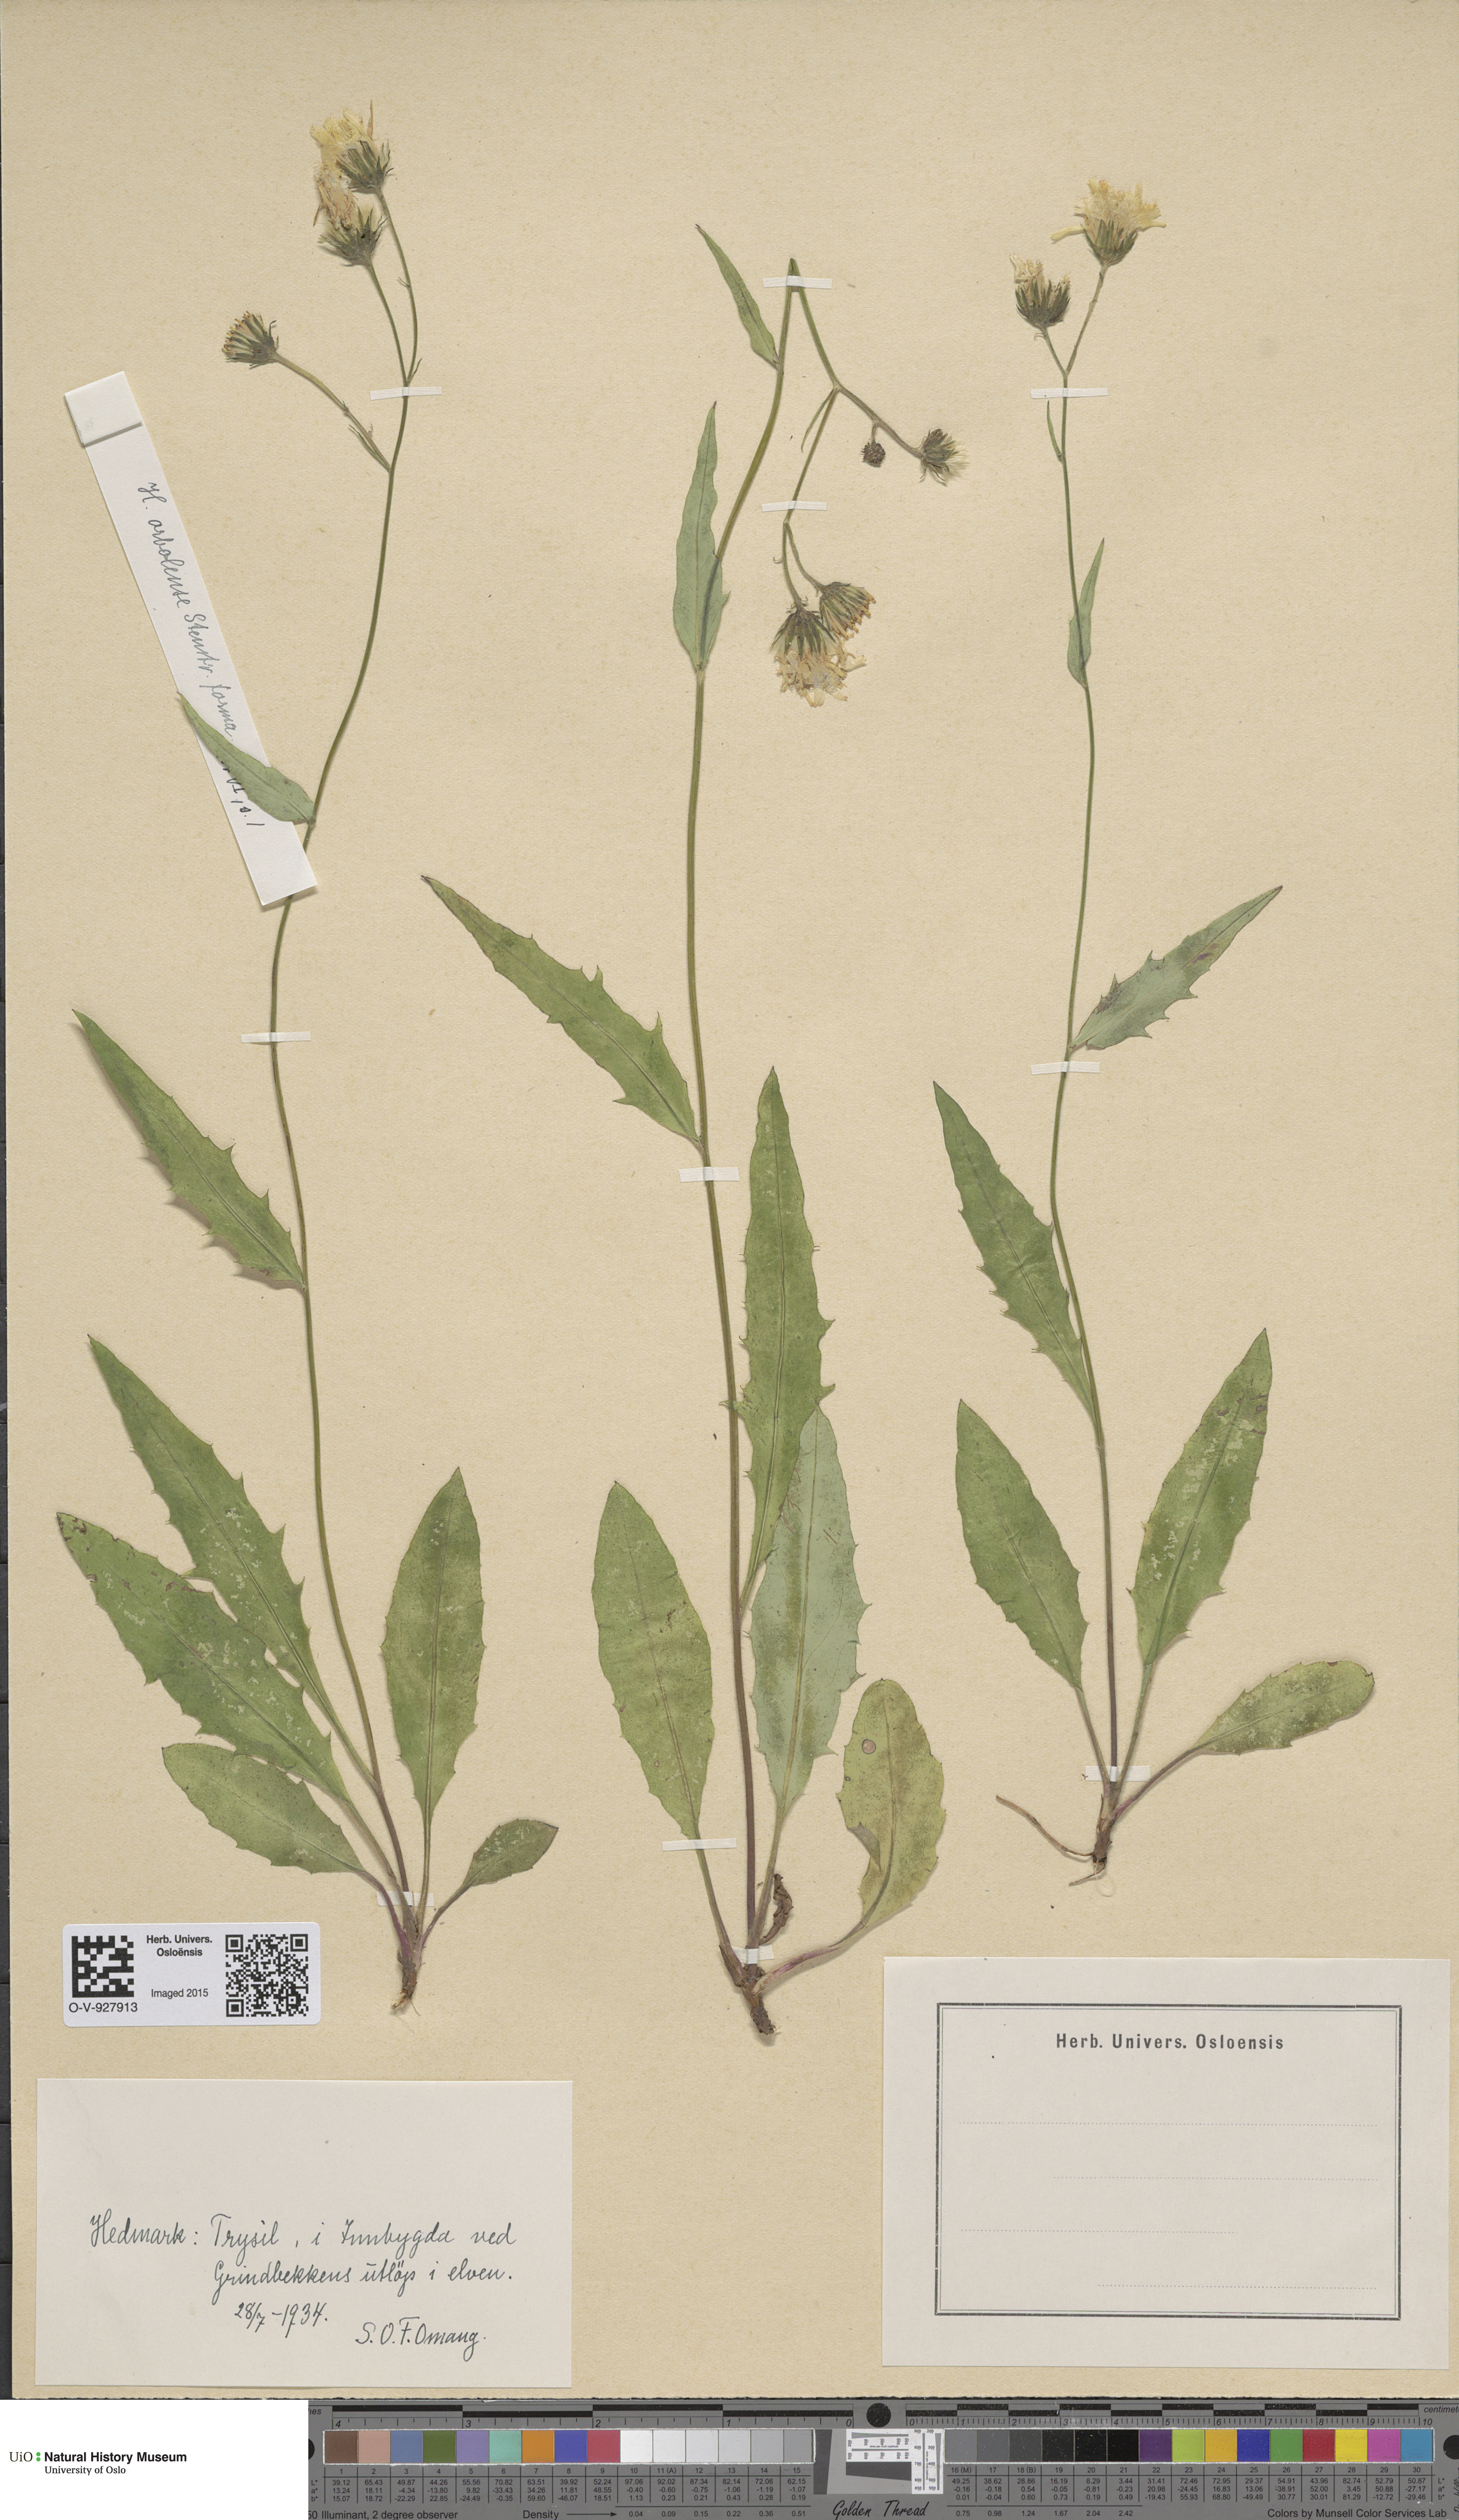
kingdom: Plantae
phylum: Tracheophyta
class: Magnoliopsida
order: Asterales
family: Asteraceae
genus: Hieracium
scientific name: Hieracium orbolense
